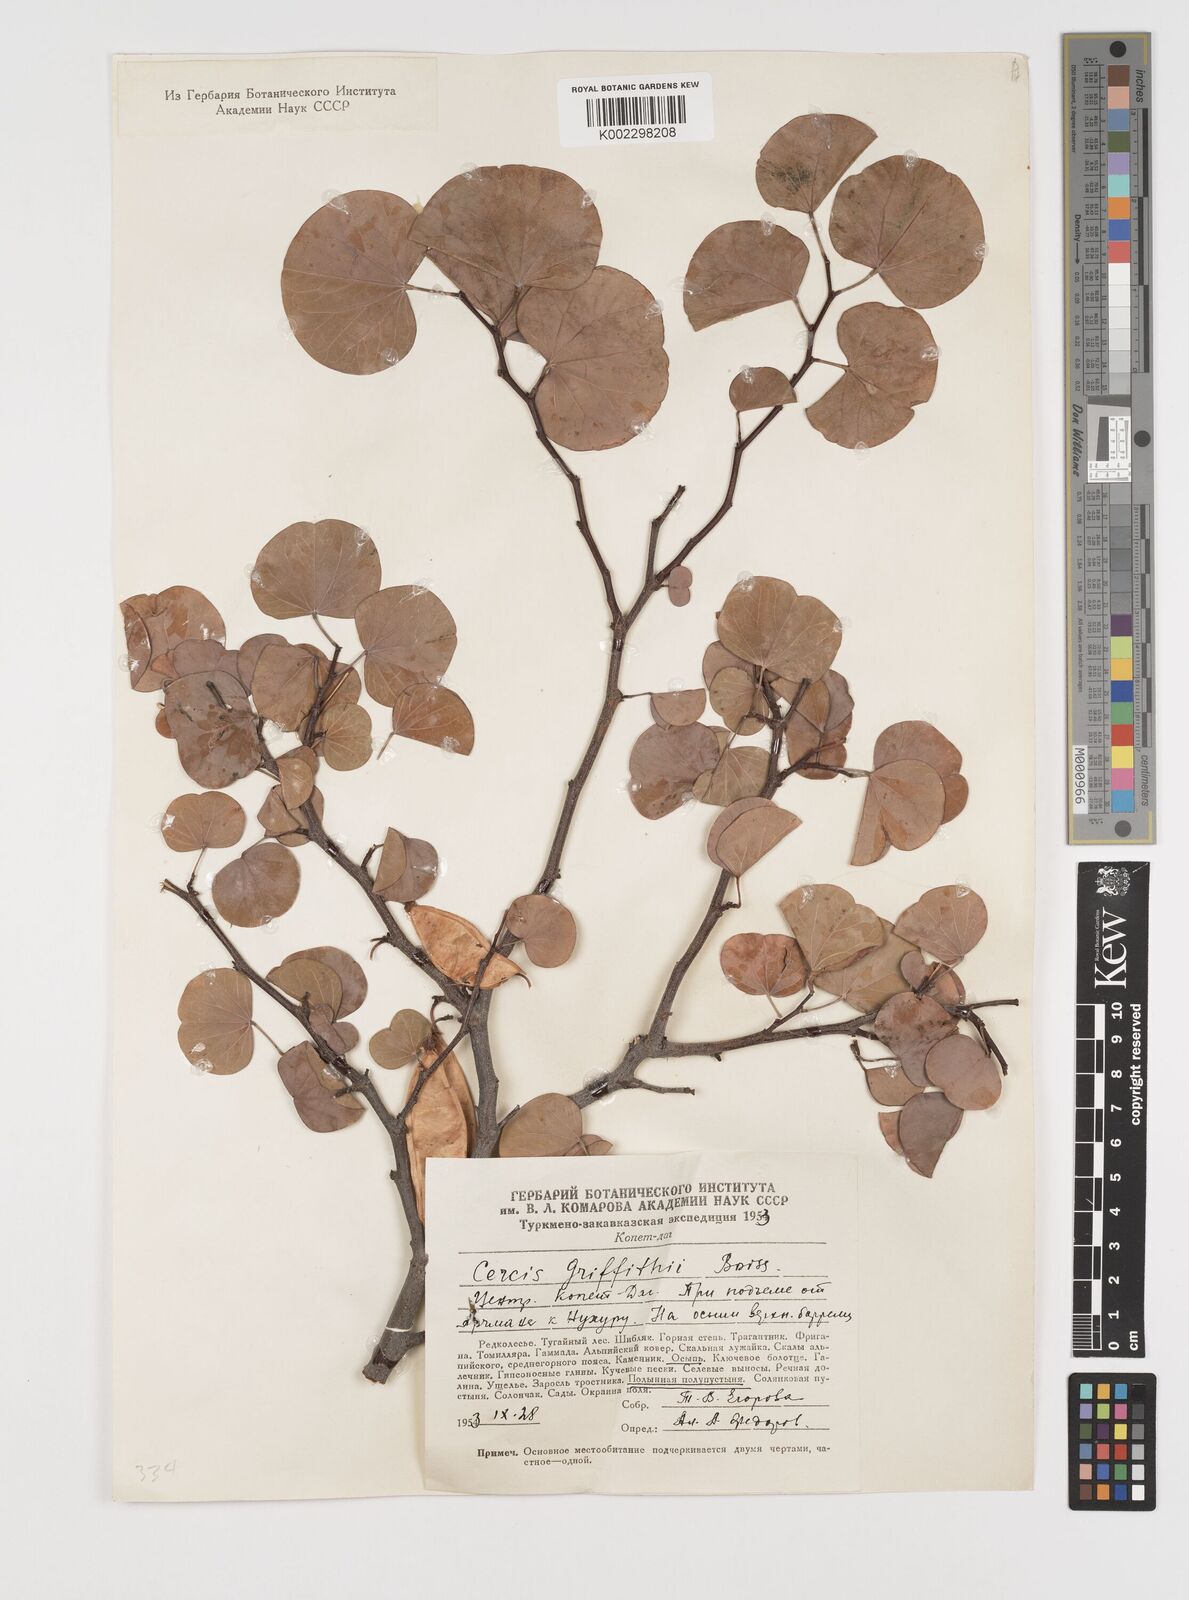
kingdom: Plantae
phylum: Tracheophyta
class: Magnoliopsida
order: Fabales
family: Fabaceae
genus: Cercis
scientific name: Cercis griffithii
